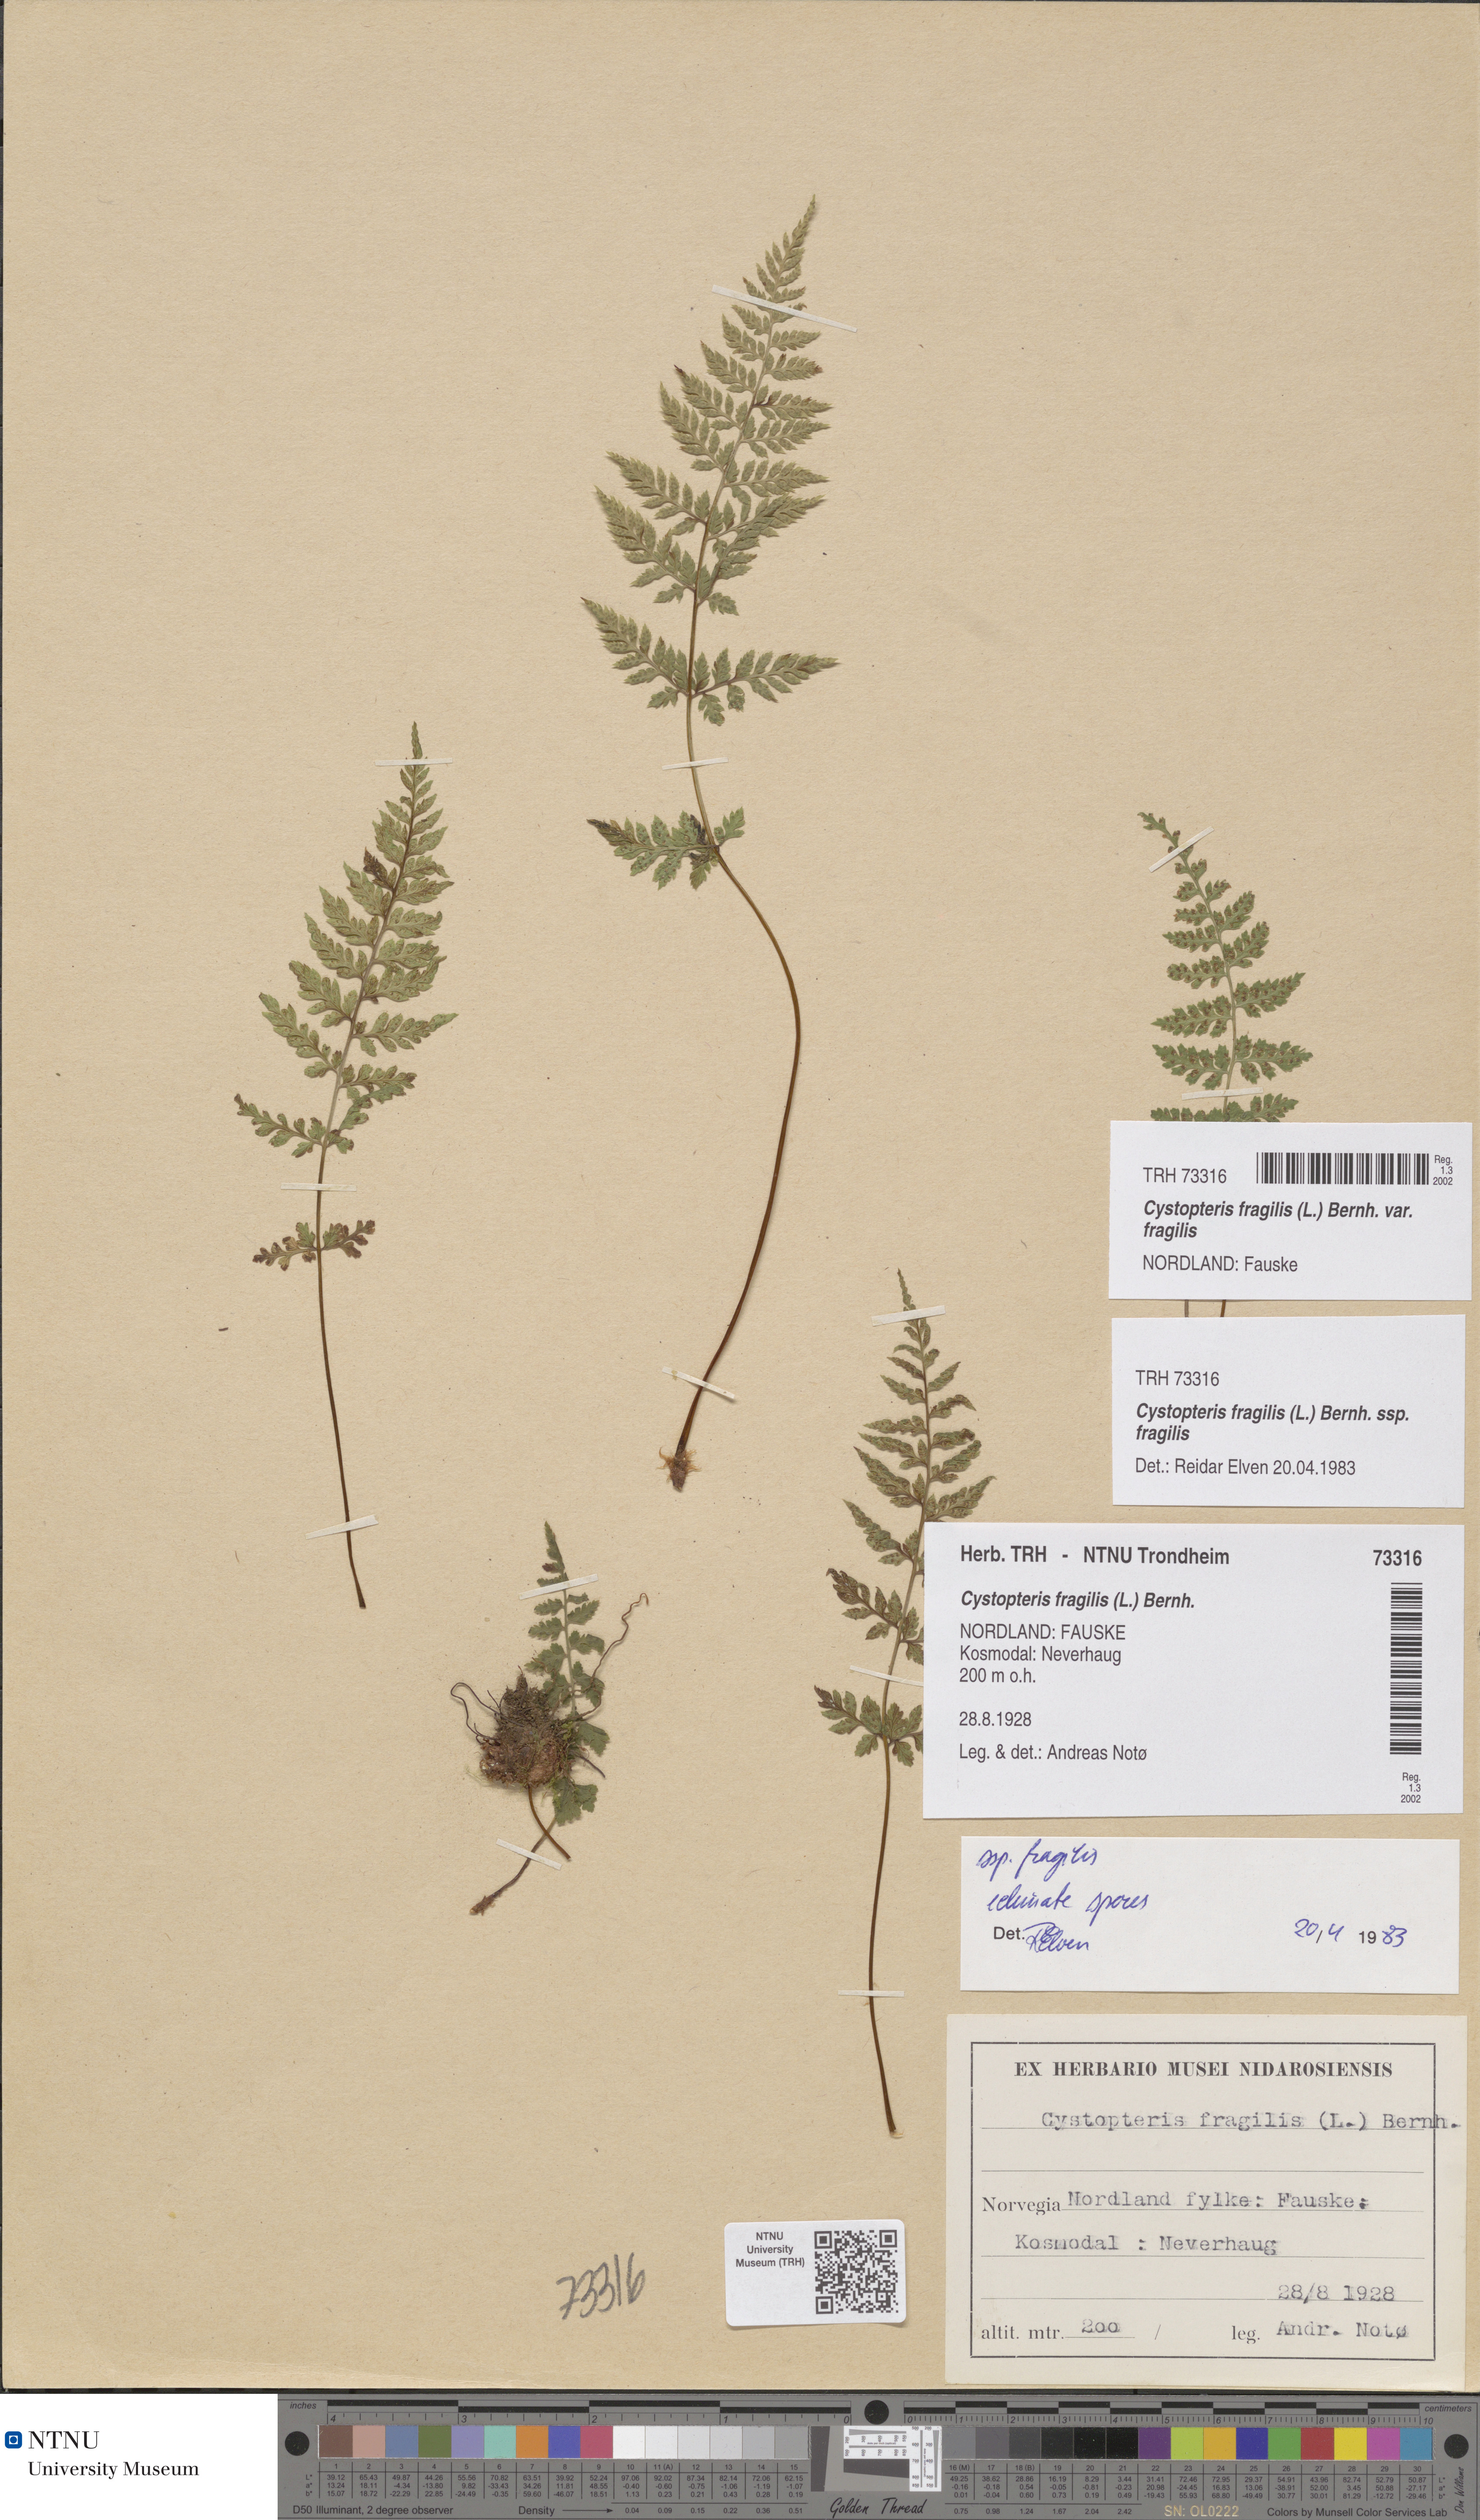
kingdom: Plantae
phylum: Tracheophyta
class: Polypodiopsida
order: Polypodiales
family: Cystopteridaceae
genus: Cystopteris
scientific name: Cystopteris fragilis
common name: Brittle bladder fern
